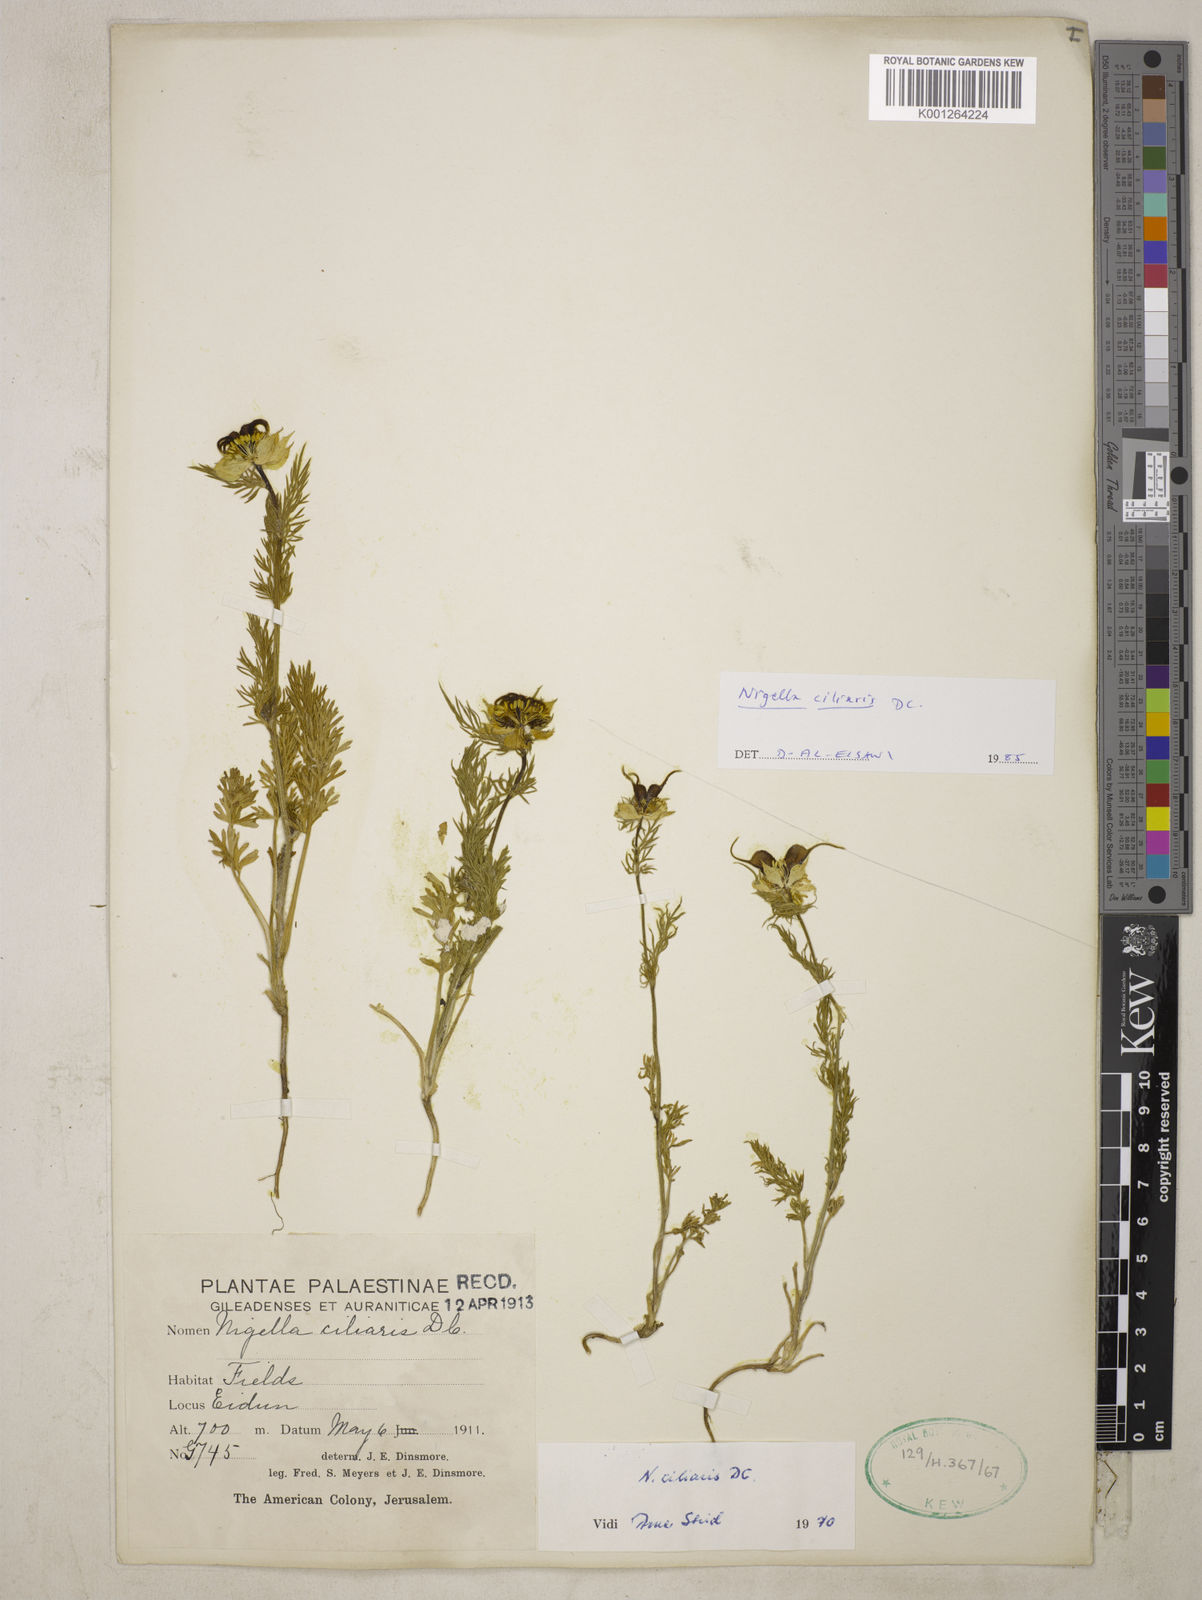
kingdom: Plantae
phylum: Tracheophyta
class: Magnoliopsida
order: Ranunculales
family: Ranunculaceae
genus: Nigella
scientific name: Nigella ciliaris
